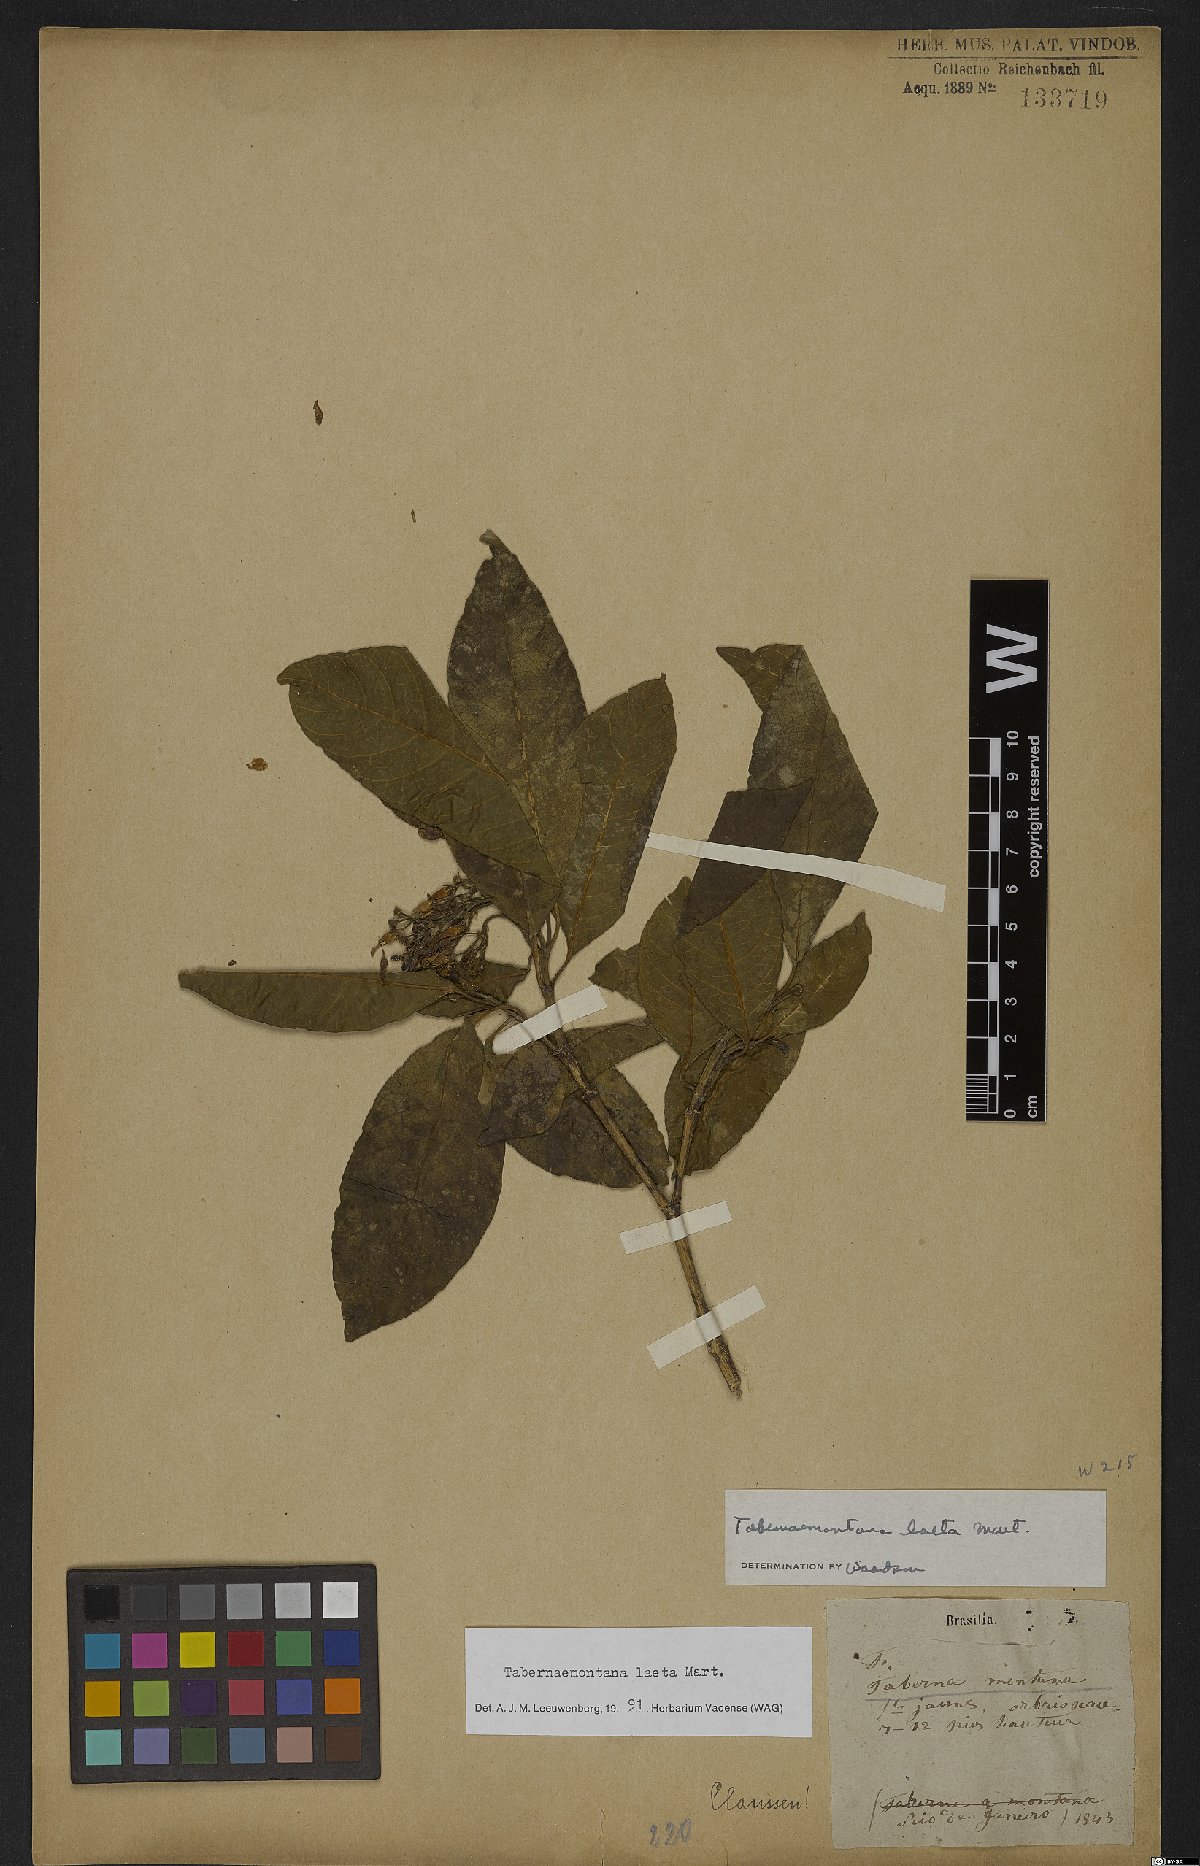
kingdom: Plantae
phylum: Tracheophyta
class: Magnoliopsida
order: Gentianales
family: Apocynaceae
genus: Tabernaemontana
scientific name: Tabernaemontana laeta
